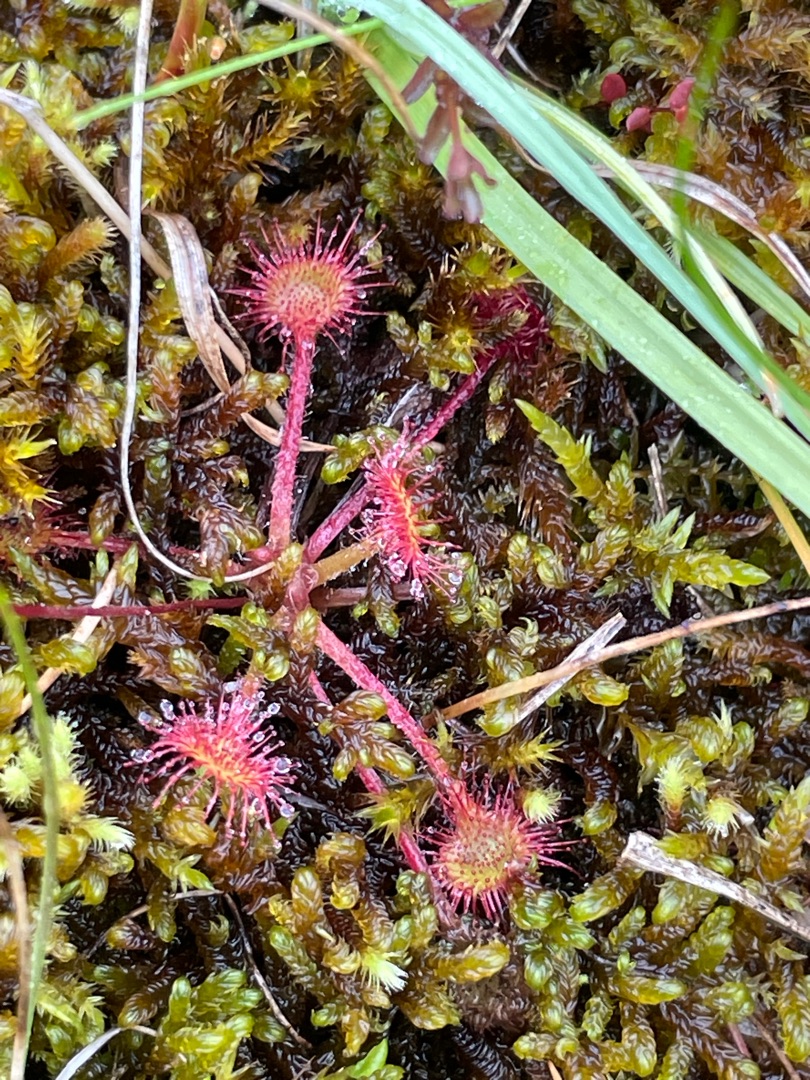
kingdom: Plantae
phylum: Tracheophyta
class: Magnoliopsida
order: Caryophyllales
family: Droseraceae
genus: Drosera
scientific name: Drosera rotundifolia
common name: Rundbladet soldug
